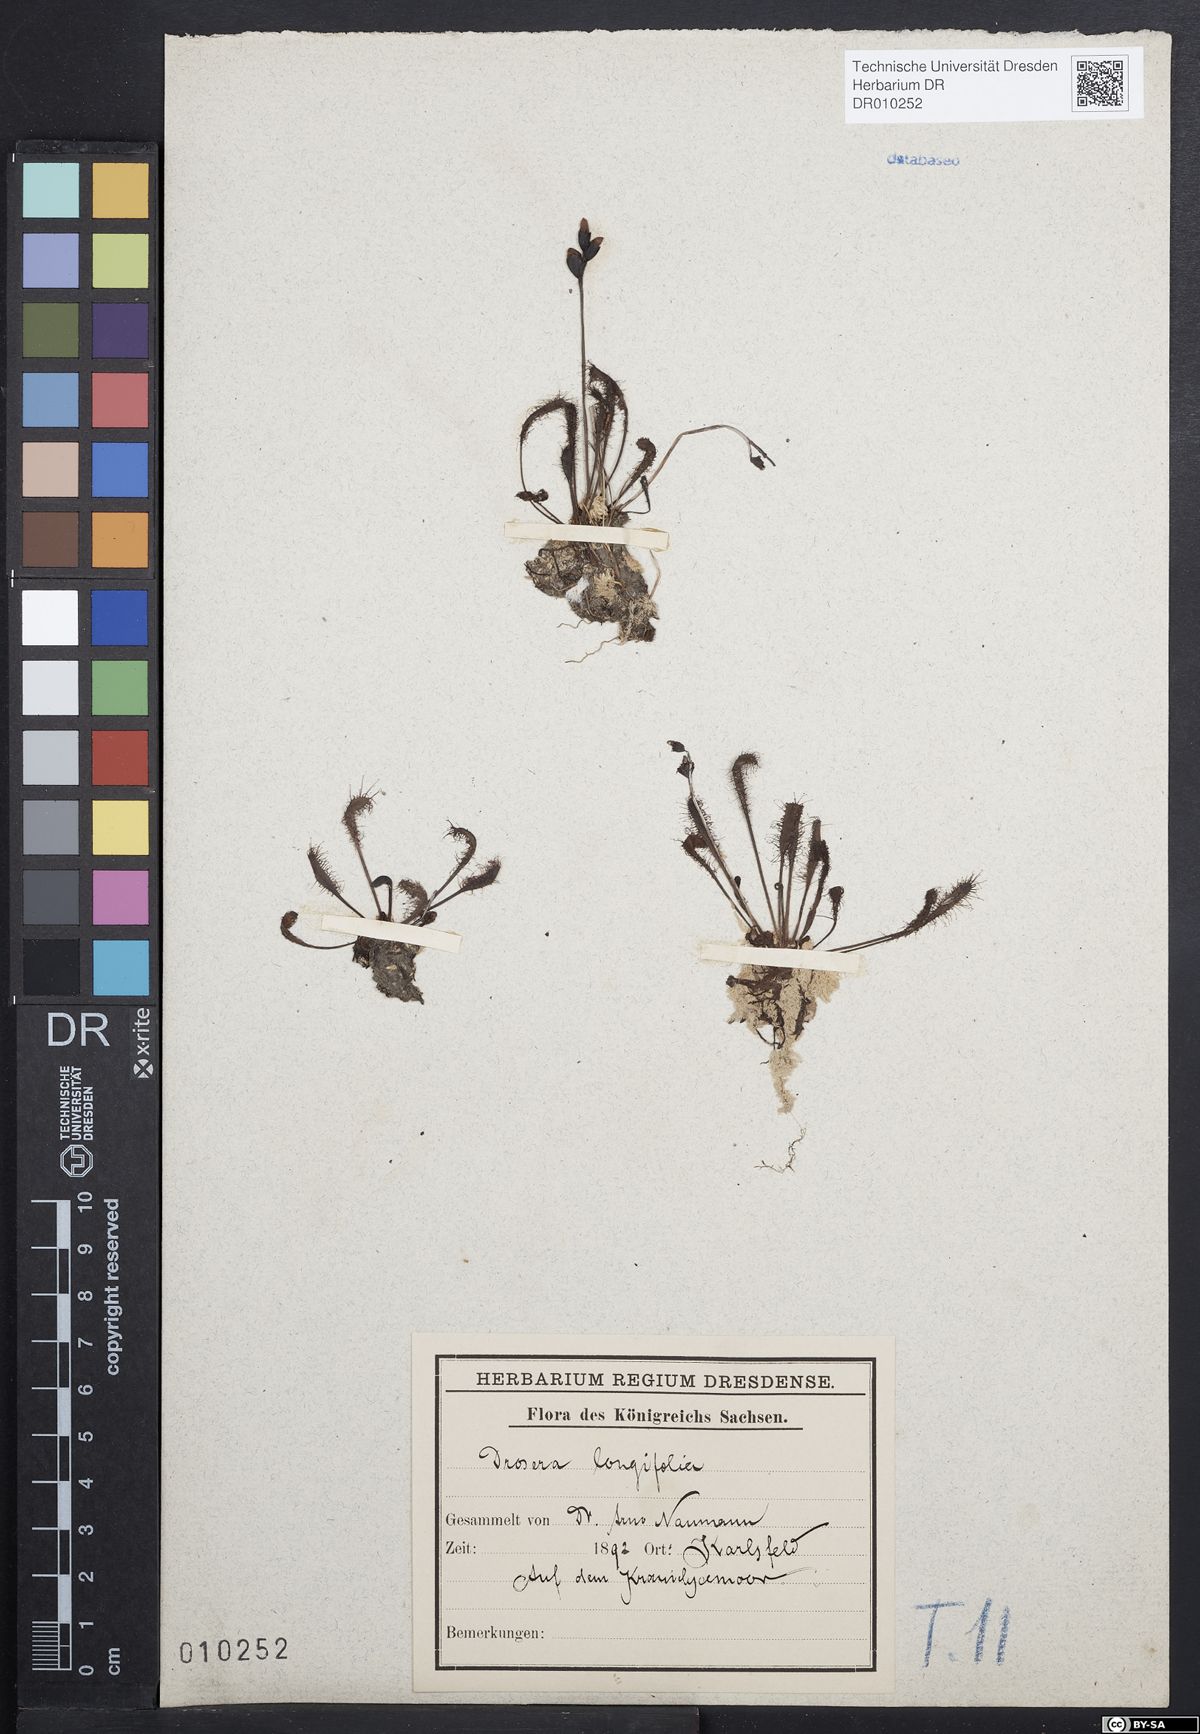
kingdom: Plantae
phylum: Tracheophyta
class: Magnoliopsida
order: Caryophyllales
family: Droseraceae
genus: Drosera
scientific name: Drosera anglica
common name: Great sundew
